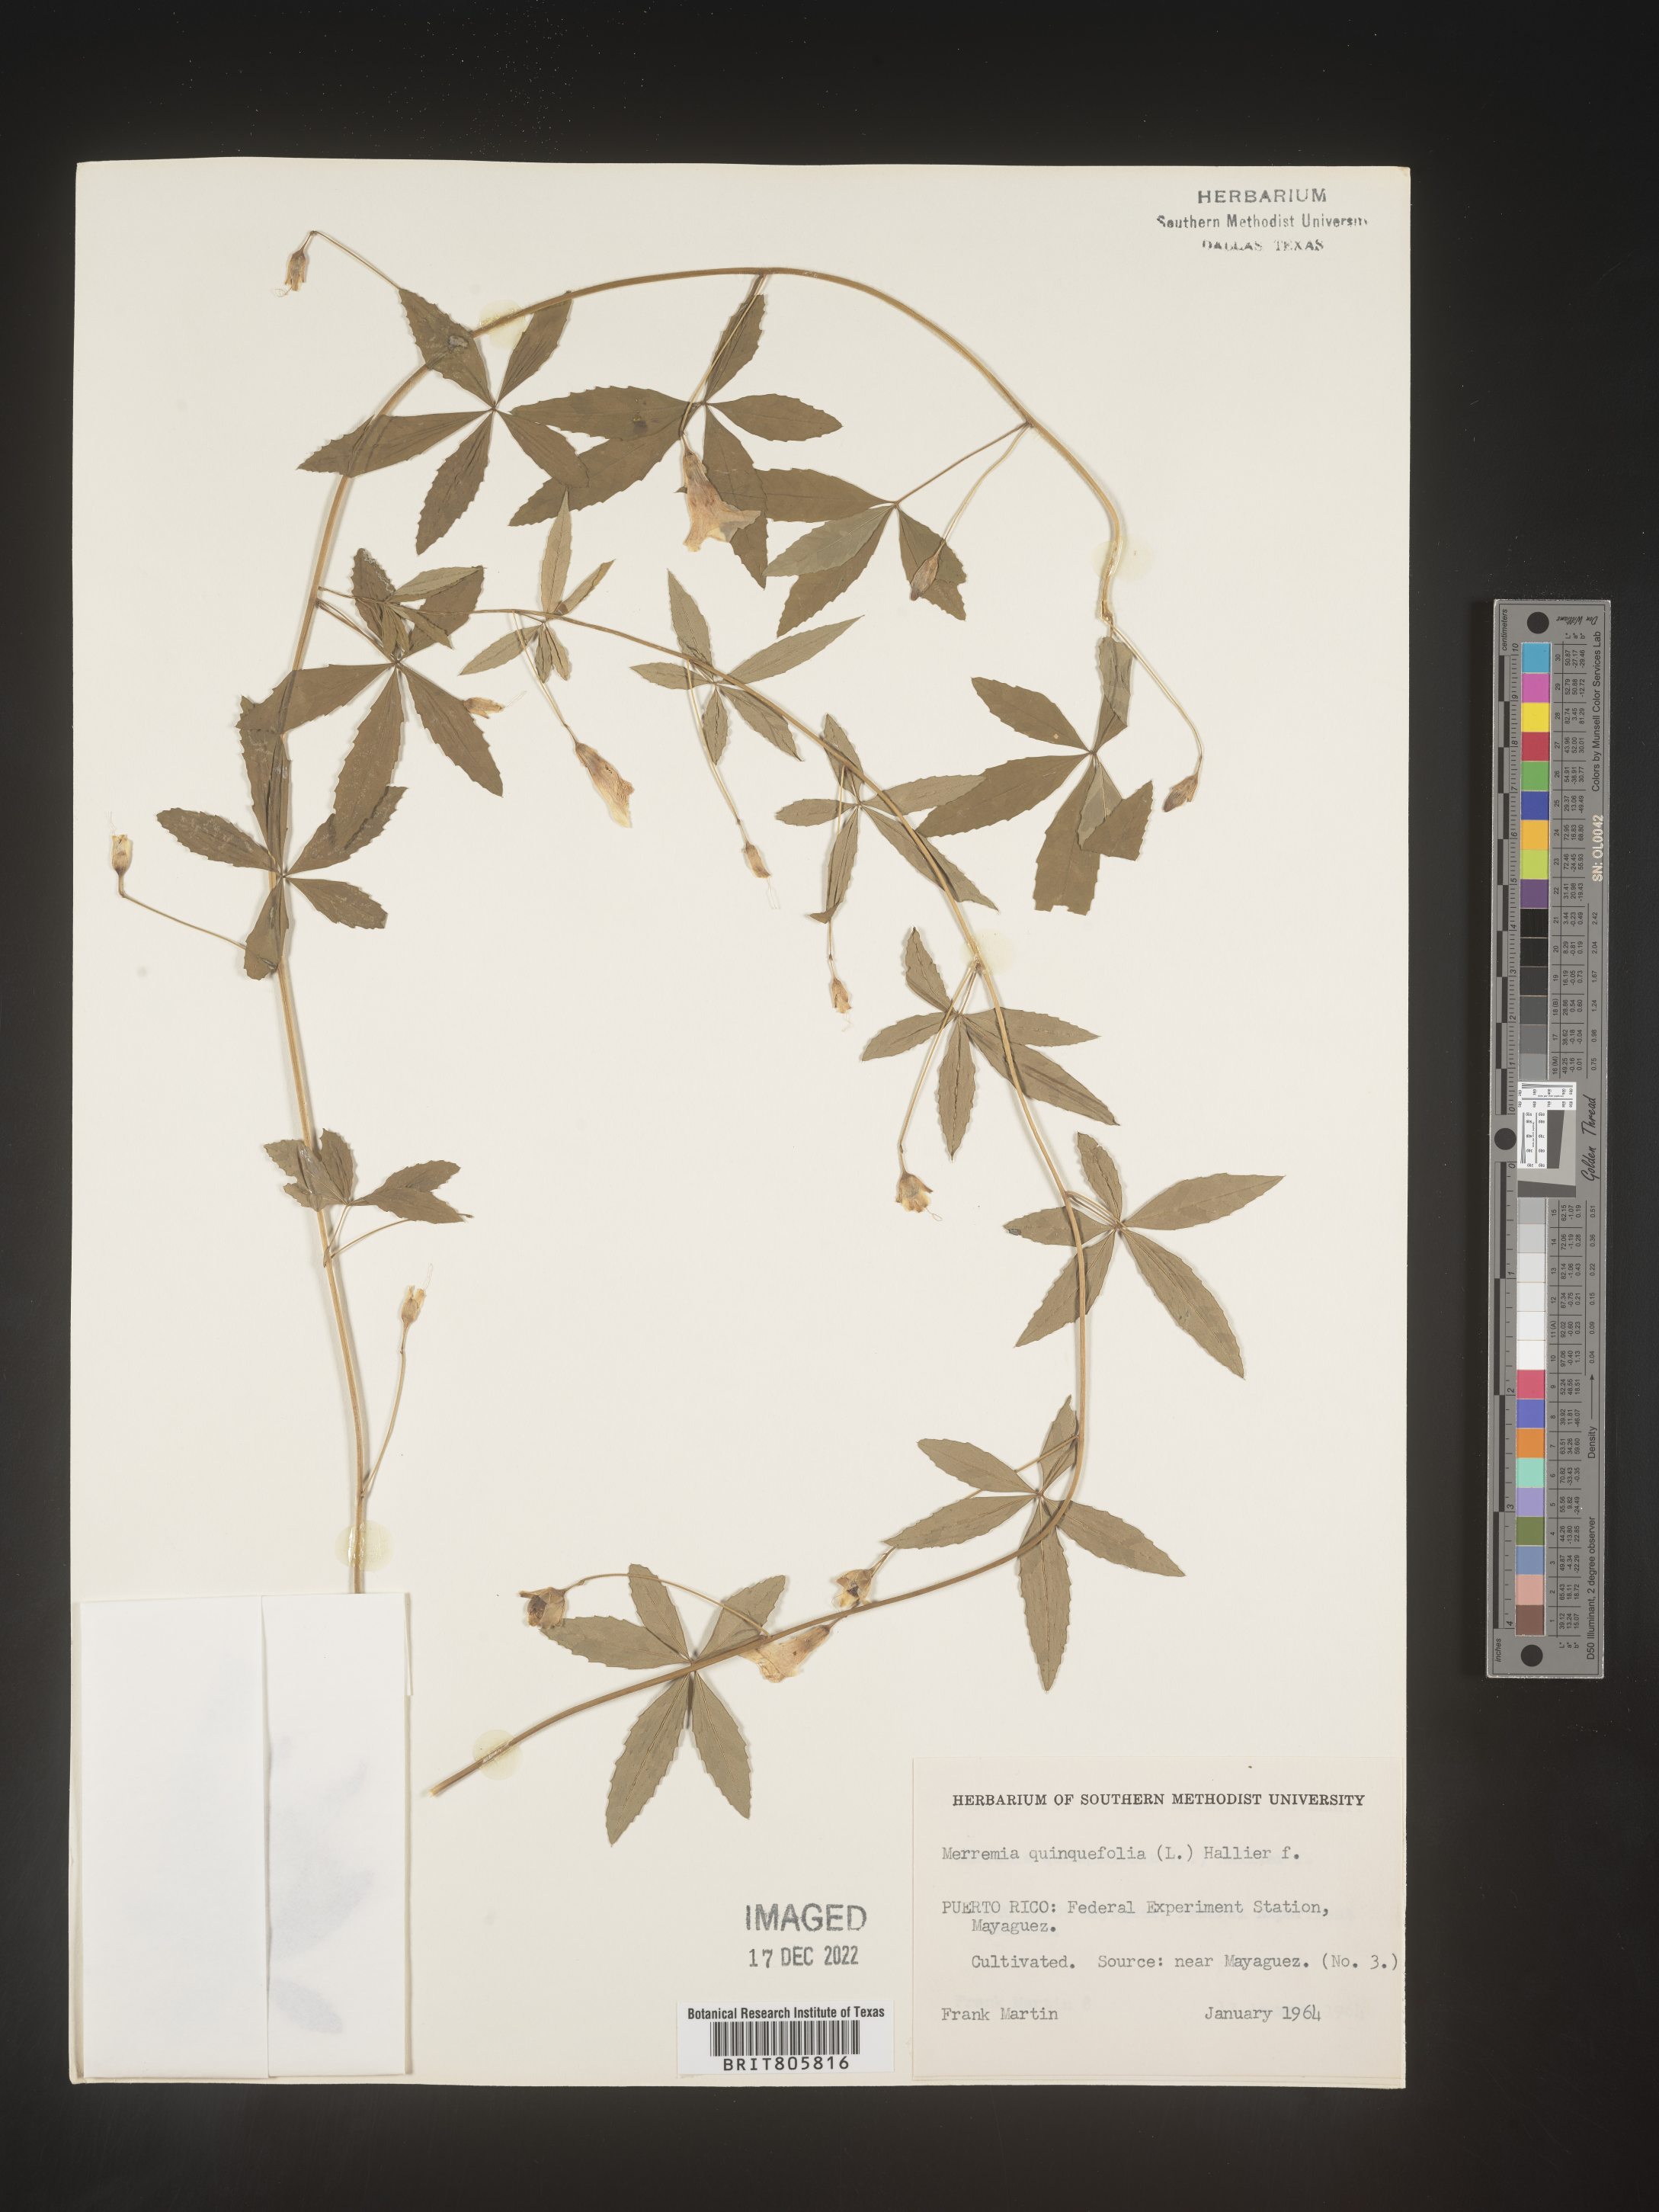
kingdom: Plantae
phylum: Tracheophyta
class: Magnoliopsida
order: Solanales
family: Convolvulaceae
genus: Merremia
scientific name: Merremia
